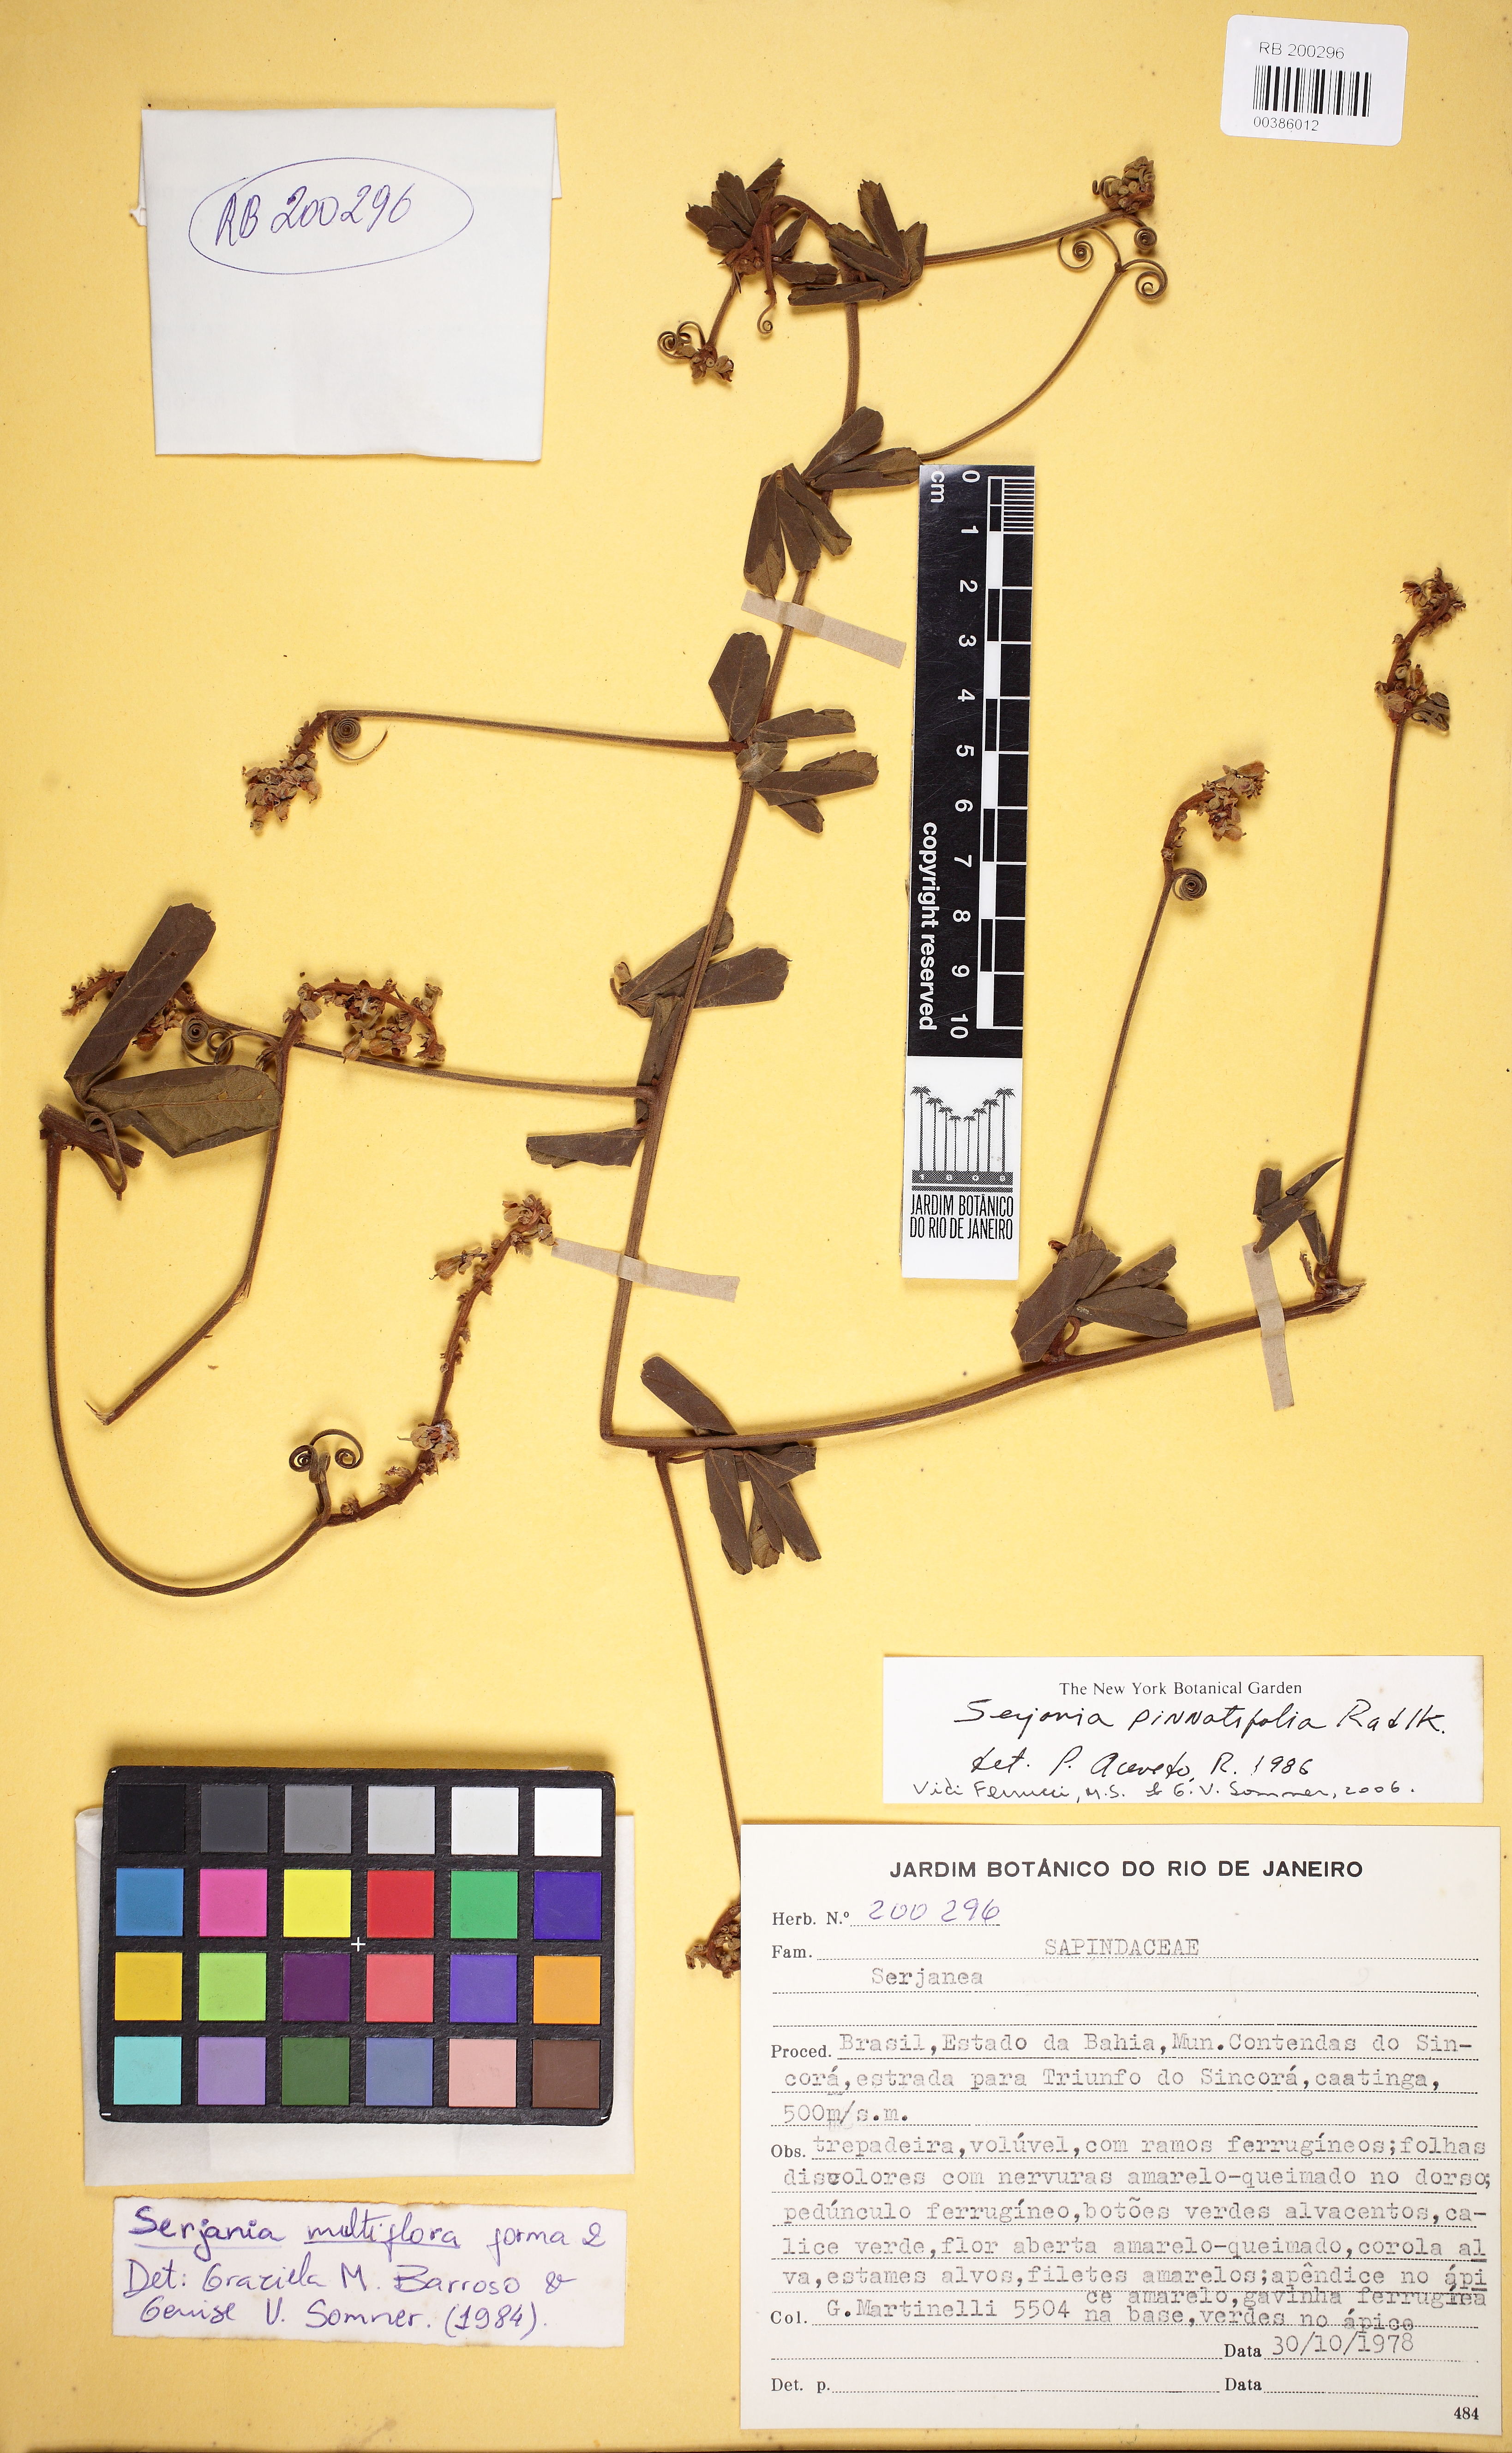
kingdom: Plantae
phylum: Tracheophyta
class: Magnoliopsida
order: Sapindales
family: Sapindaceae
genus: Serjania
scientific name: Serjania pinnatifolia
